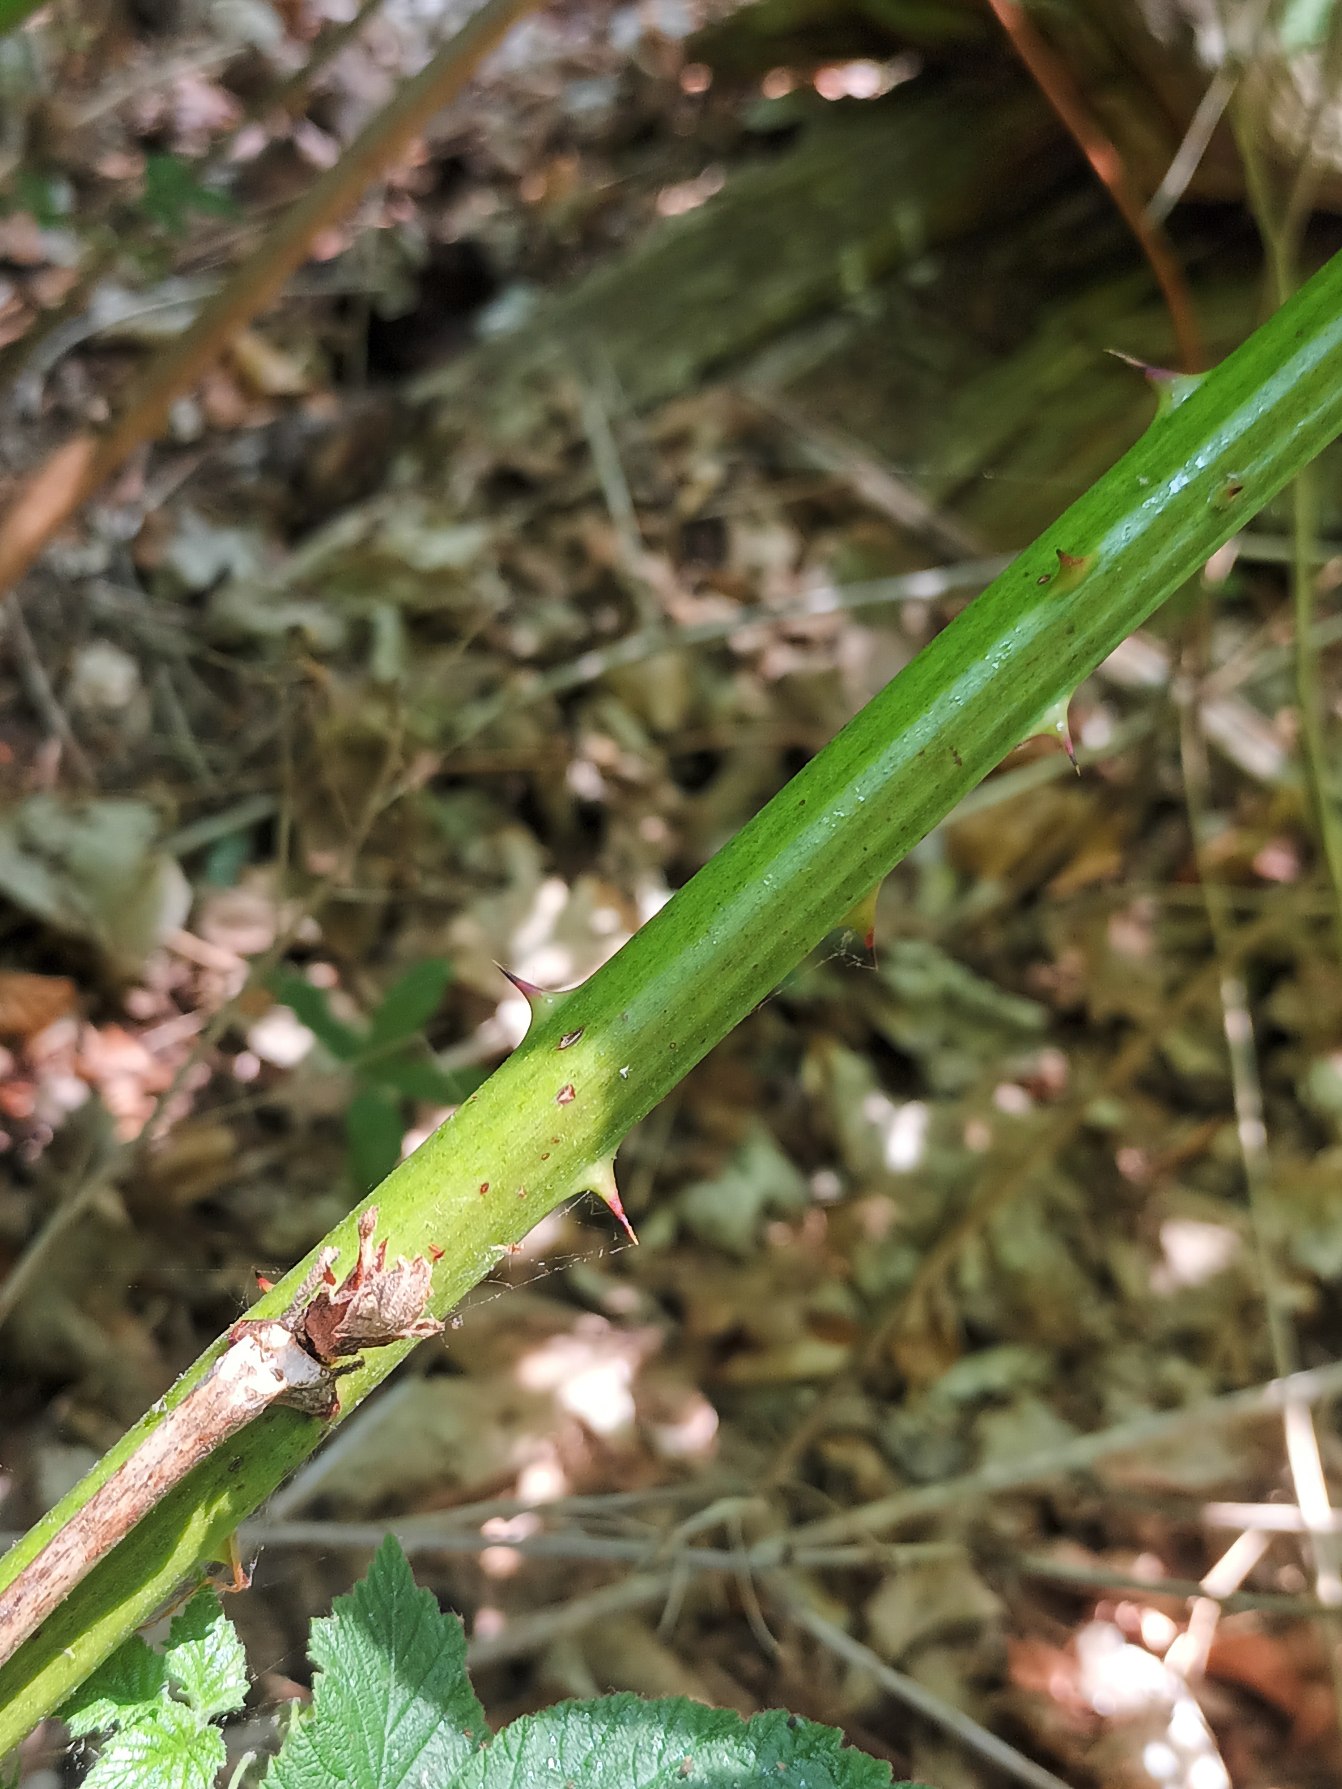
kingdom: Plantae
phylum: Tracheophyta
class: Magnoliopsida
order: Rosales
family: Rosaceae
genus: Rubus
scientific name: Rubus allegheniensis
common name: Allegheny-brombær
